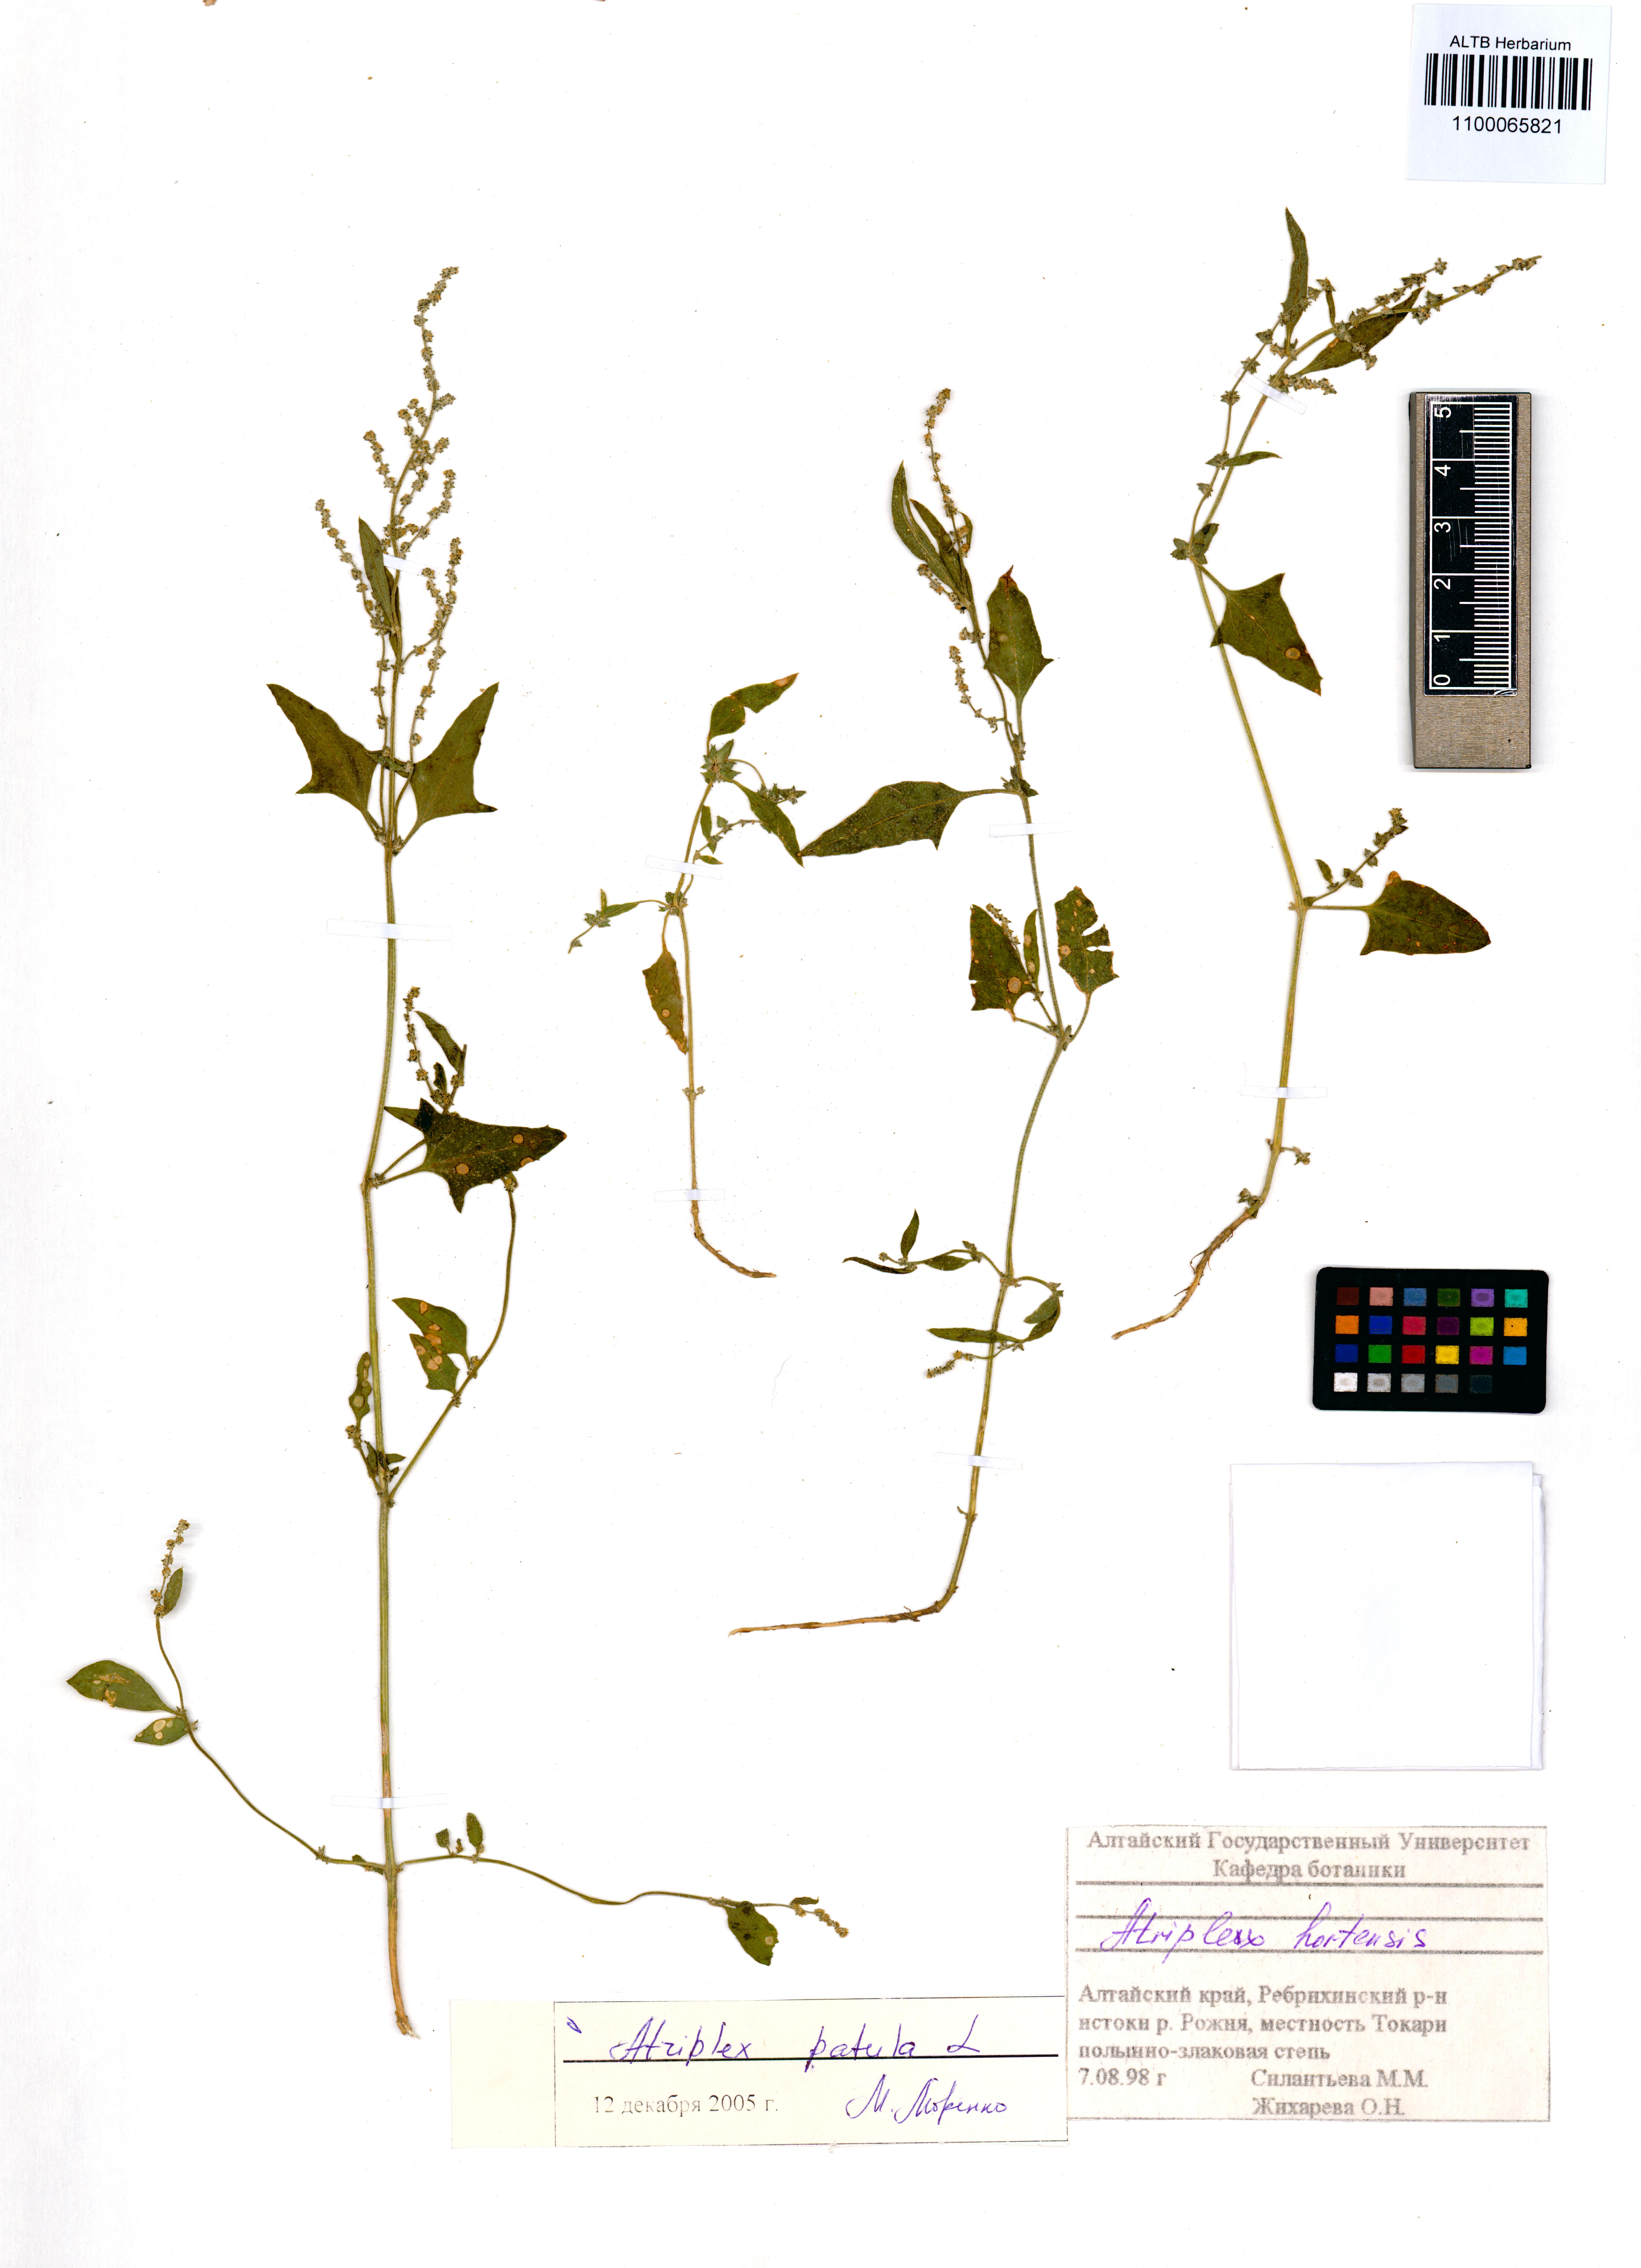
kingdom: Plantae
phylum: Tracheophyta
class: Magnoliopsida
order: Caryophyllales
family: Amaranthaceae
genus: Atriplex
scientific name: Atriplex patula
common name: Common orache
